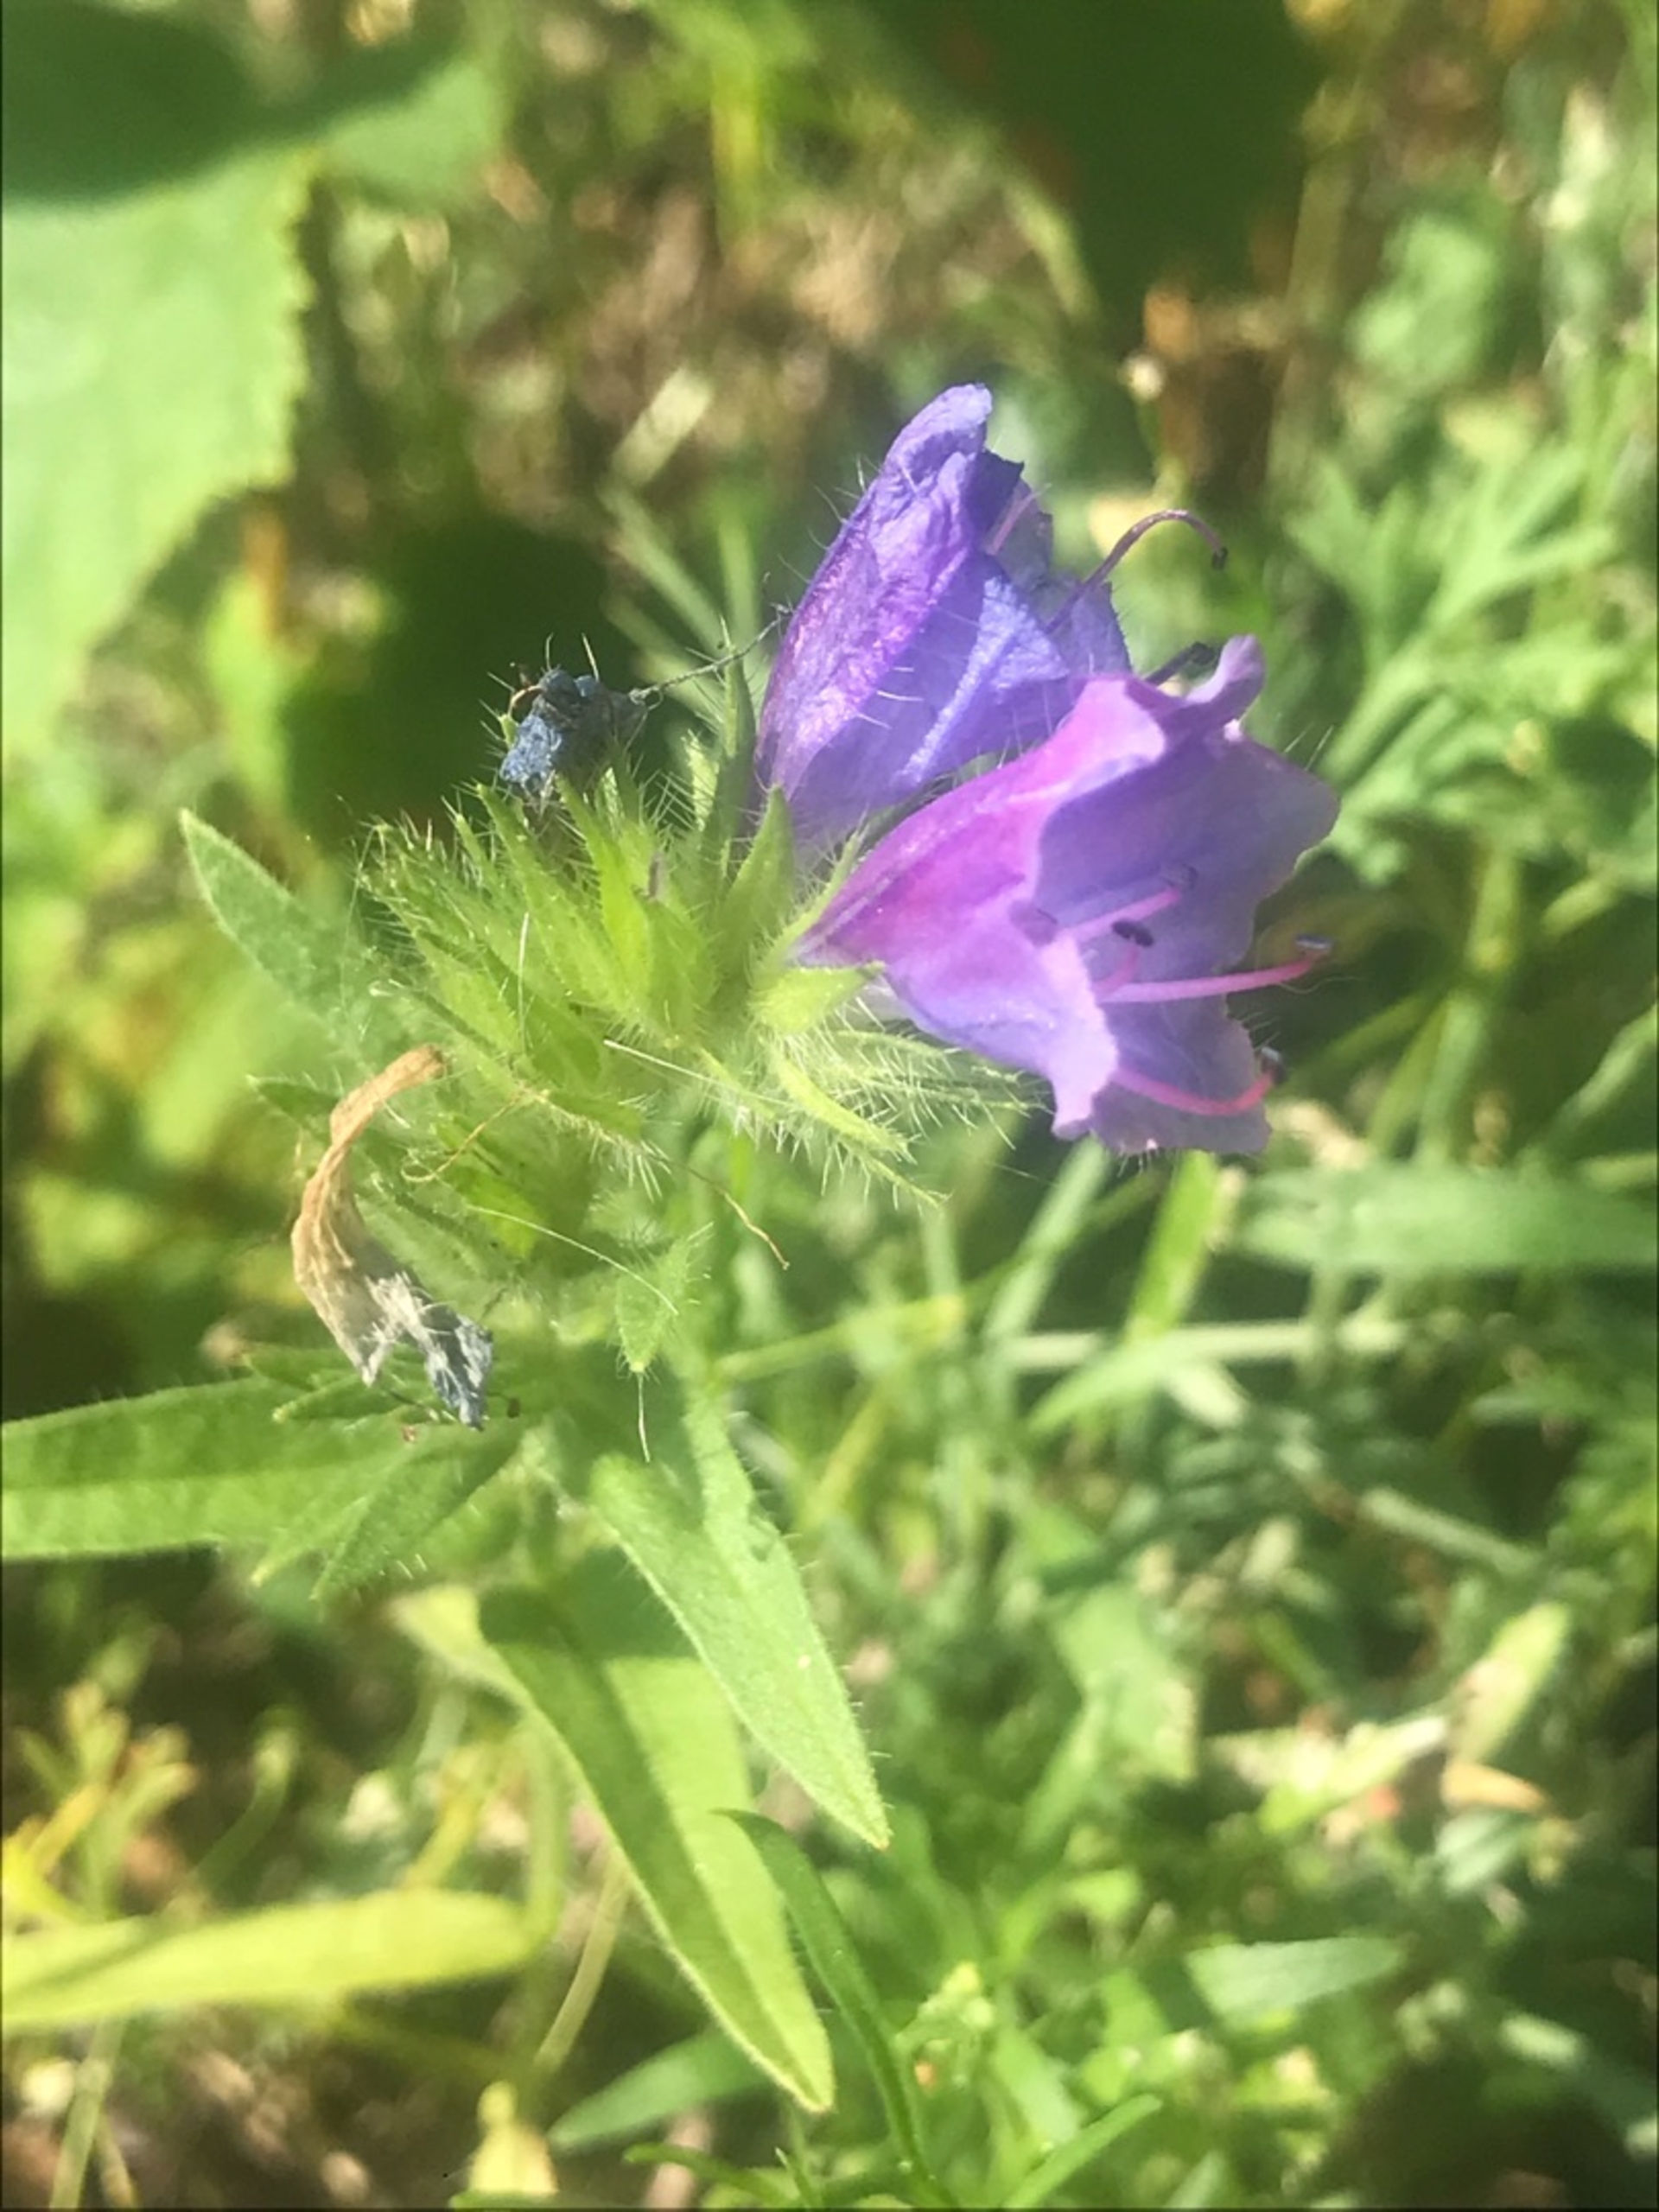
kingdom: Plantae
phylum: Tracheophyta
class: Magnoliopsida
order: Boraginales
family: Boraginaceae
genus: Echium
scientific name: Echium plantagineum
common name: Vejbred-slangehoved
